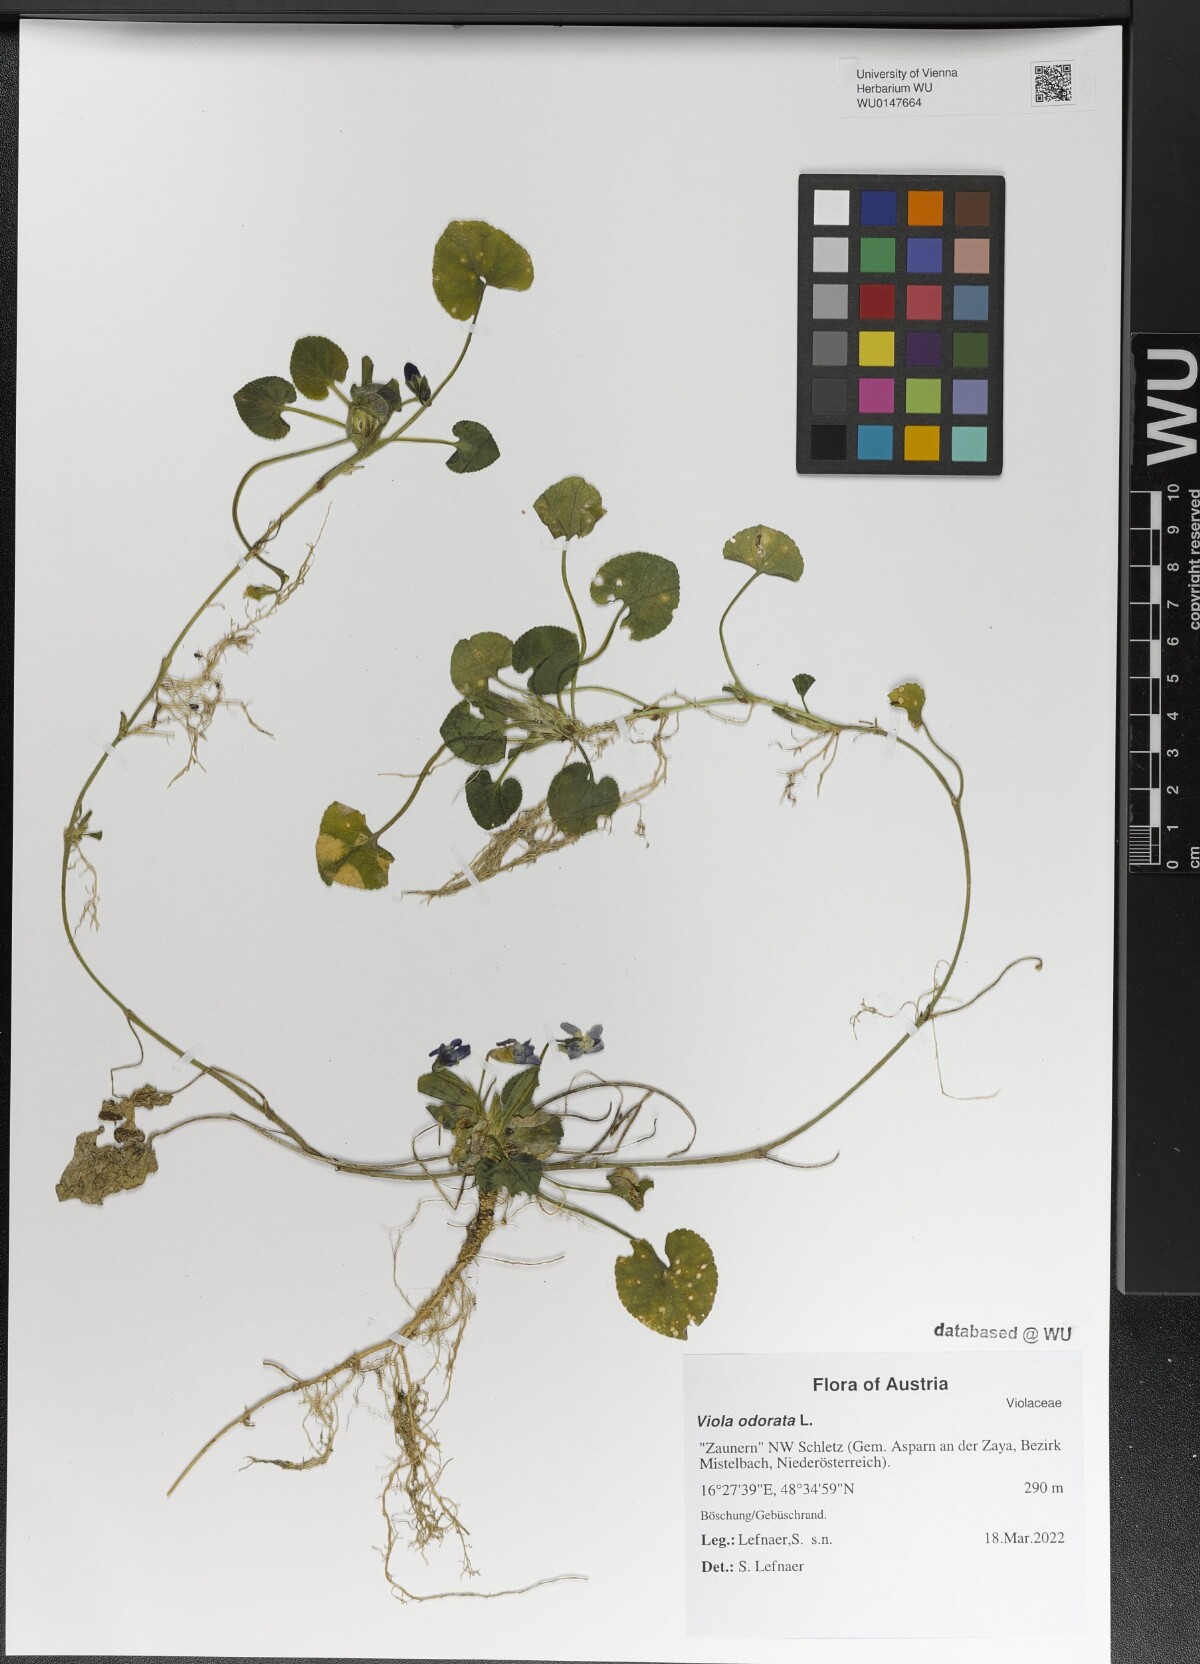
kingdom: Plantae
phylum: Tracheophyta
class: Magnoliopsida
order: Malpighiales
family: Violaceae
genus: Viola
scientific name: Viola odorata
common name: Sweet violet
